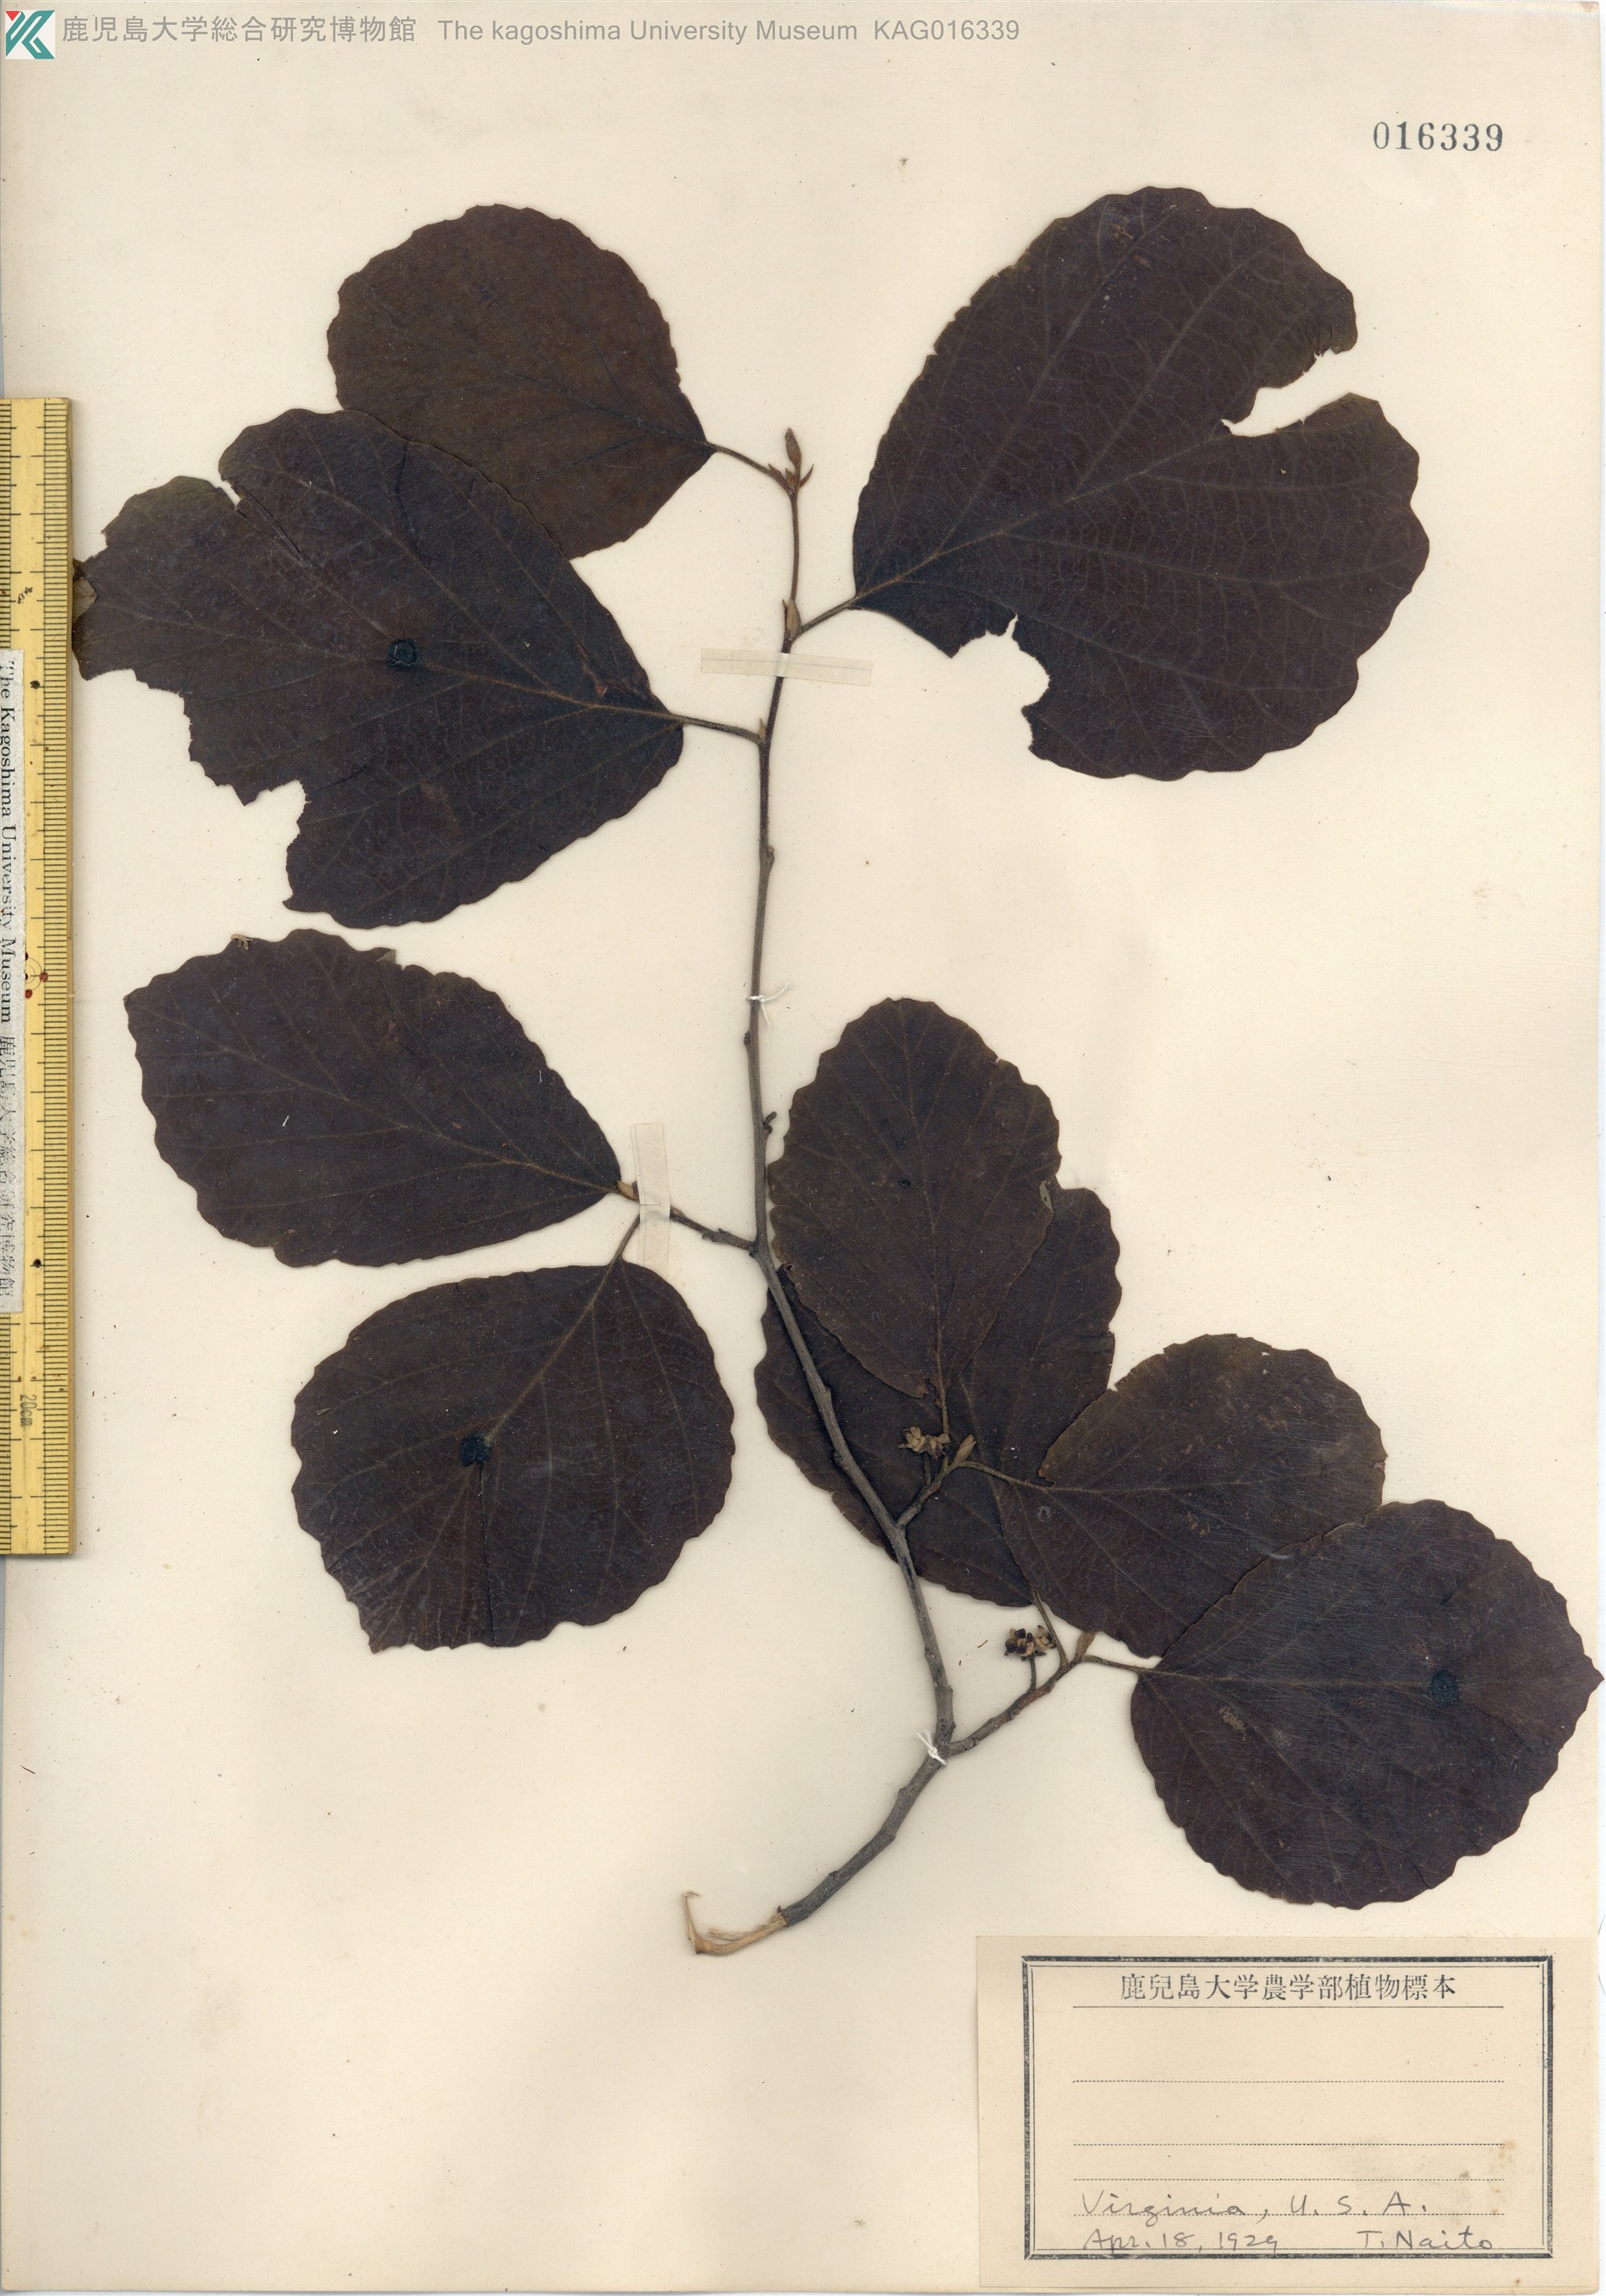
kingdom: Plantae
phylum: Tracheophyta
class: Magnoliopsida
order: Saxifragales
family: Hamamelidaceae
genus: Hamamelis
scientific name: Hamamelis virginiana
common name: Witch-hazel
